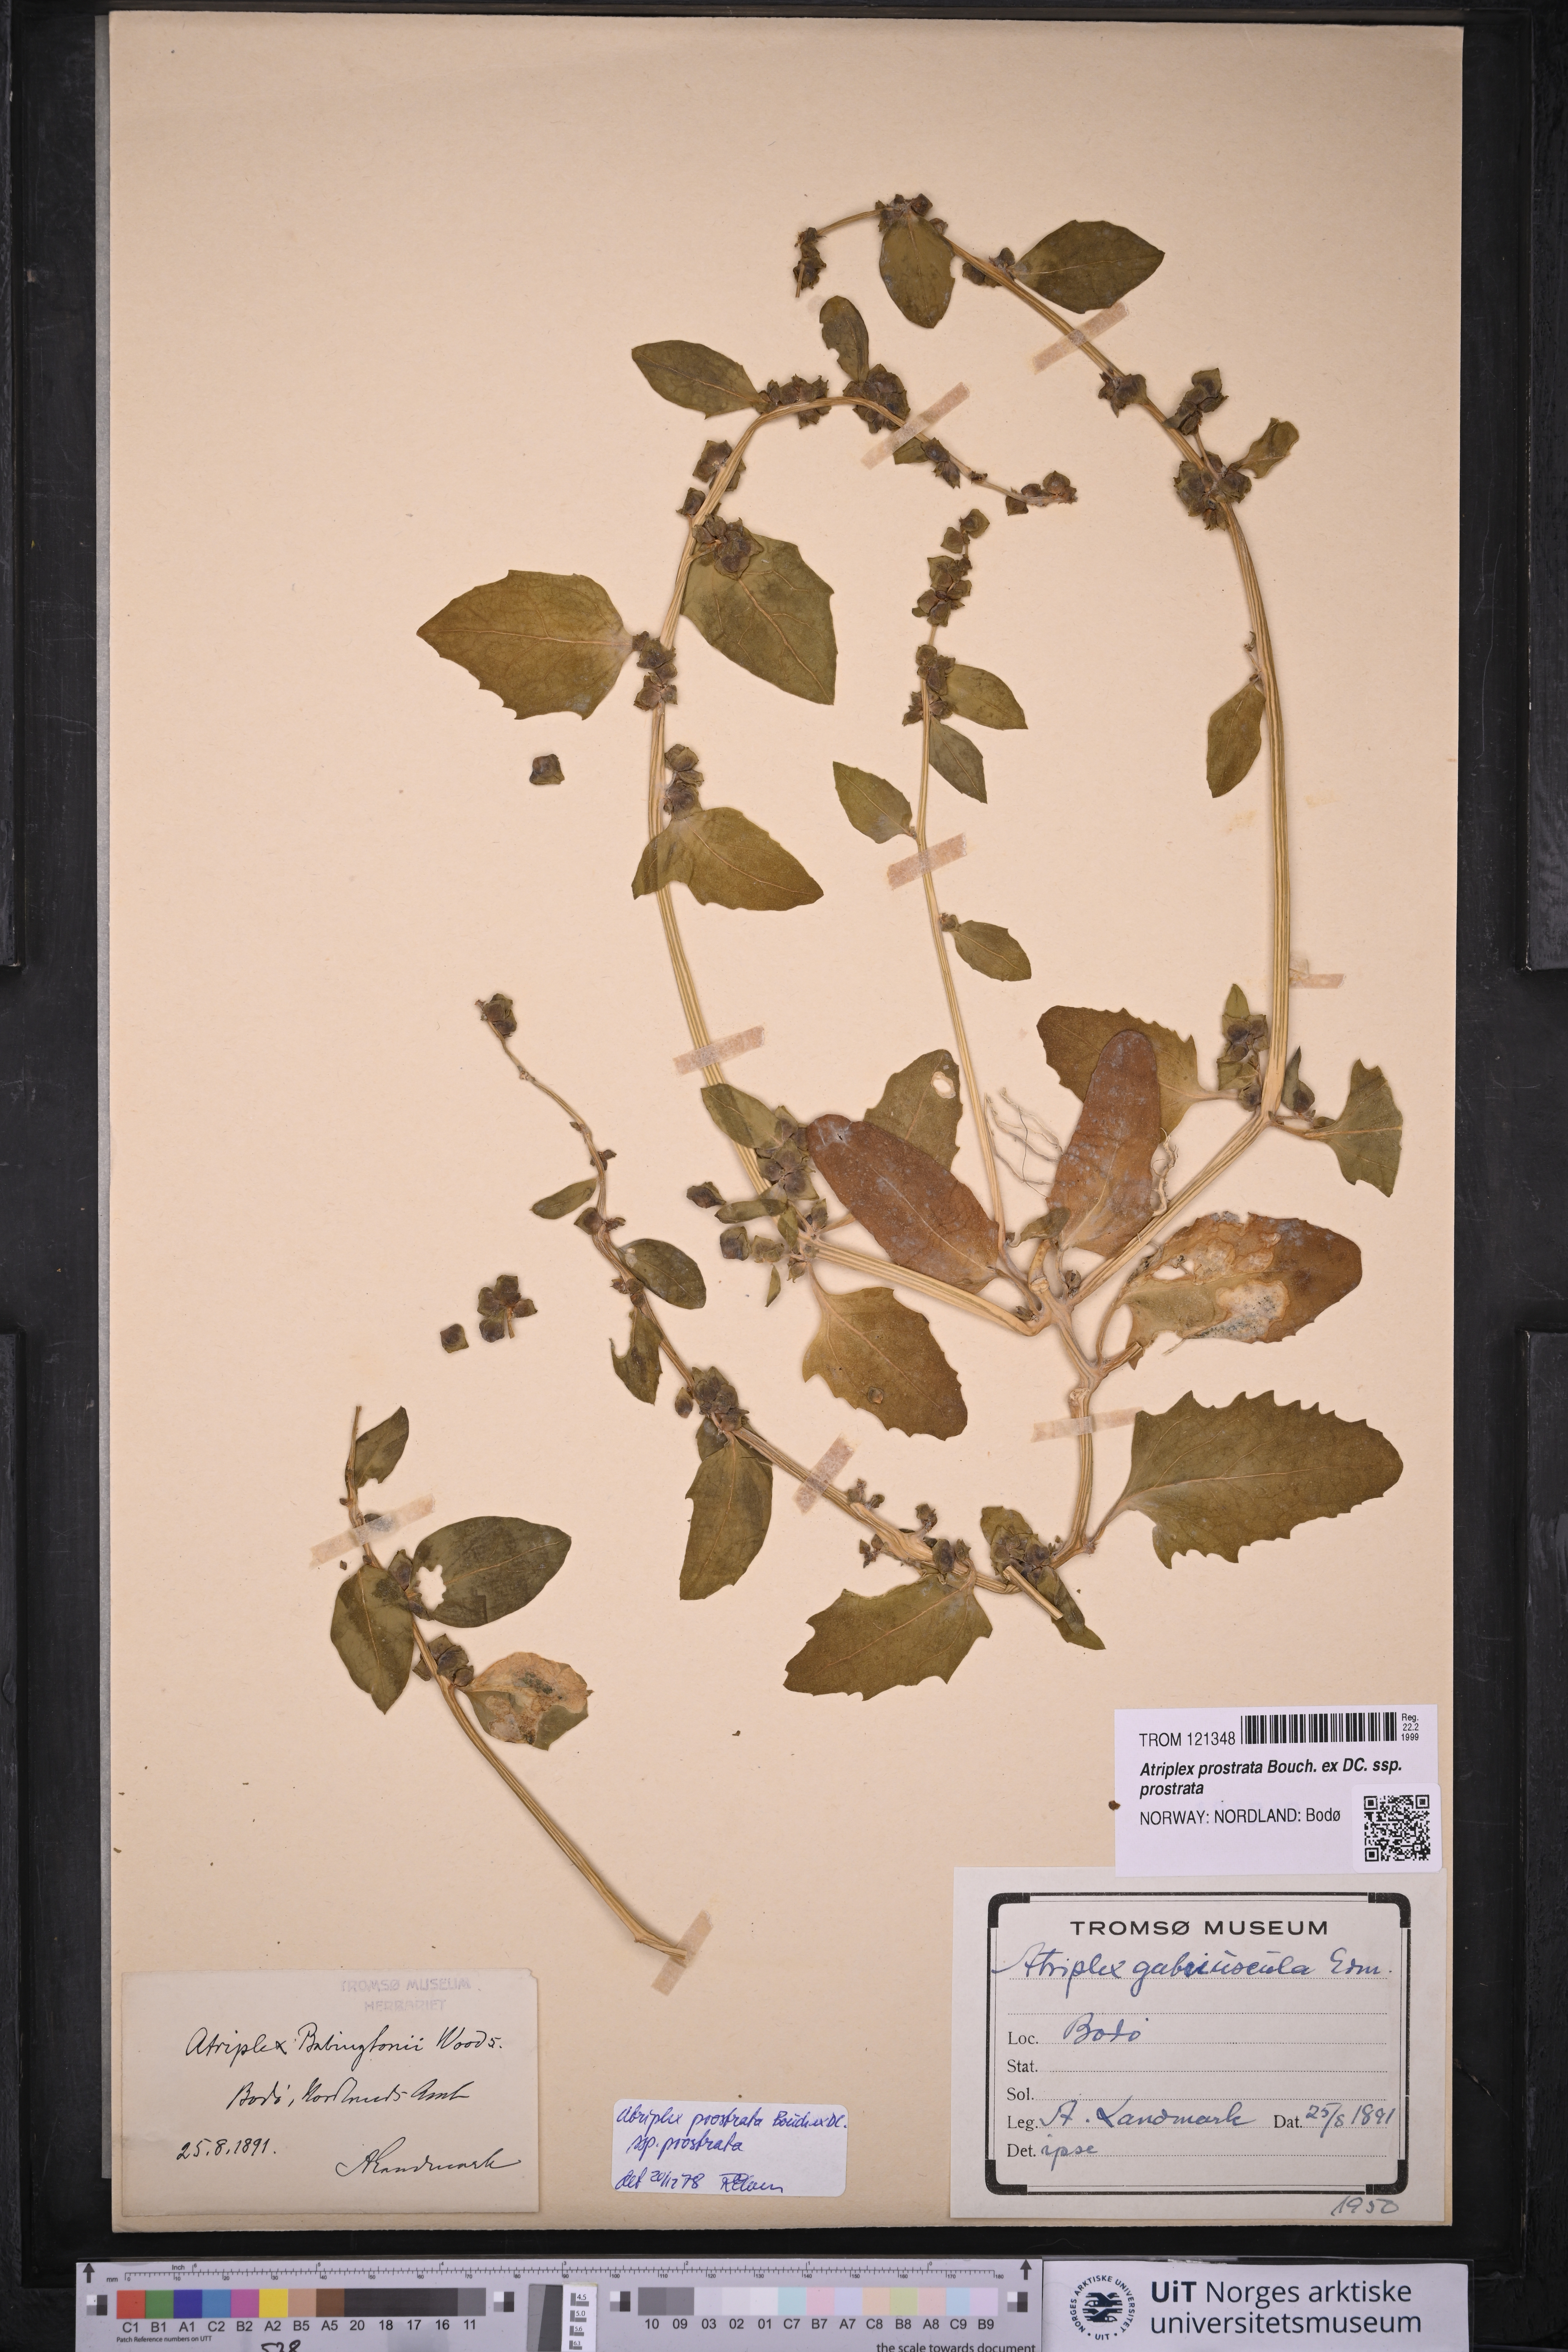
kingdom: Plantae
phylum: Tracheophyta
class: Magnoliopsida
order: Caryophyllales
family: Amaranthaceae
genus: Atriplex
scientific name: Atriplex prostrata
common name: Spear-leaved orache
